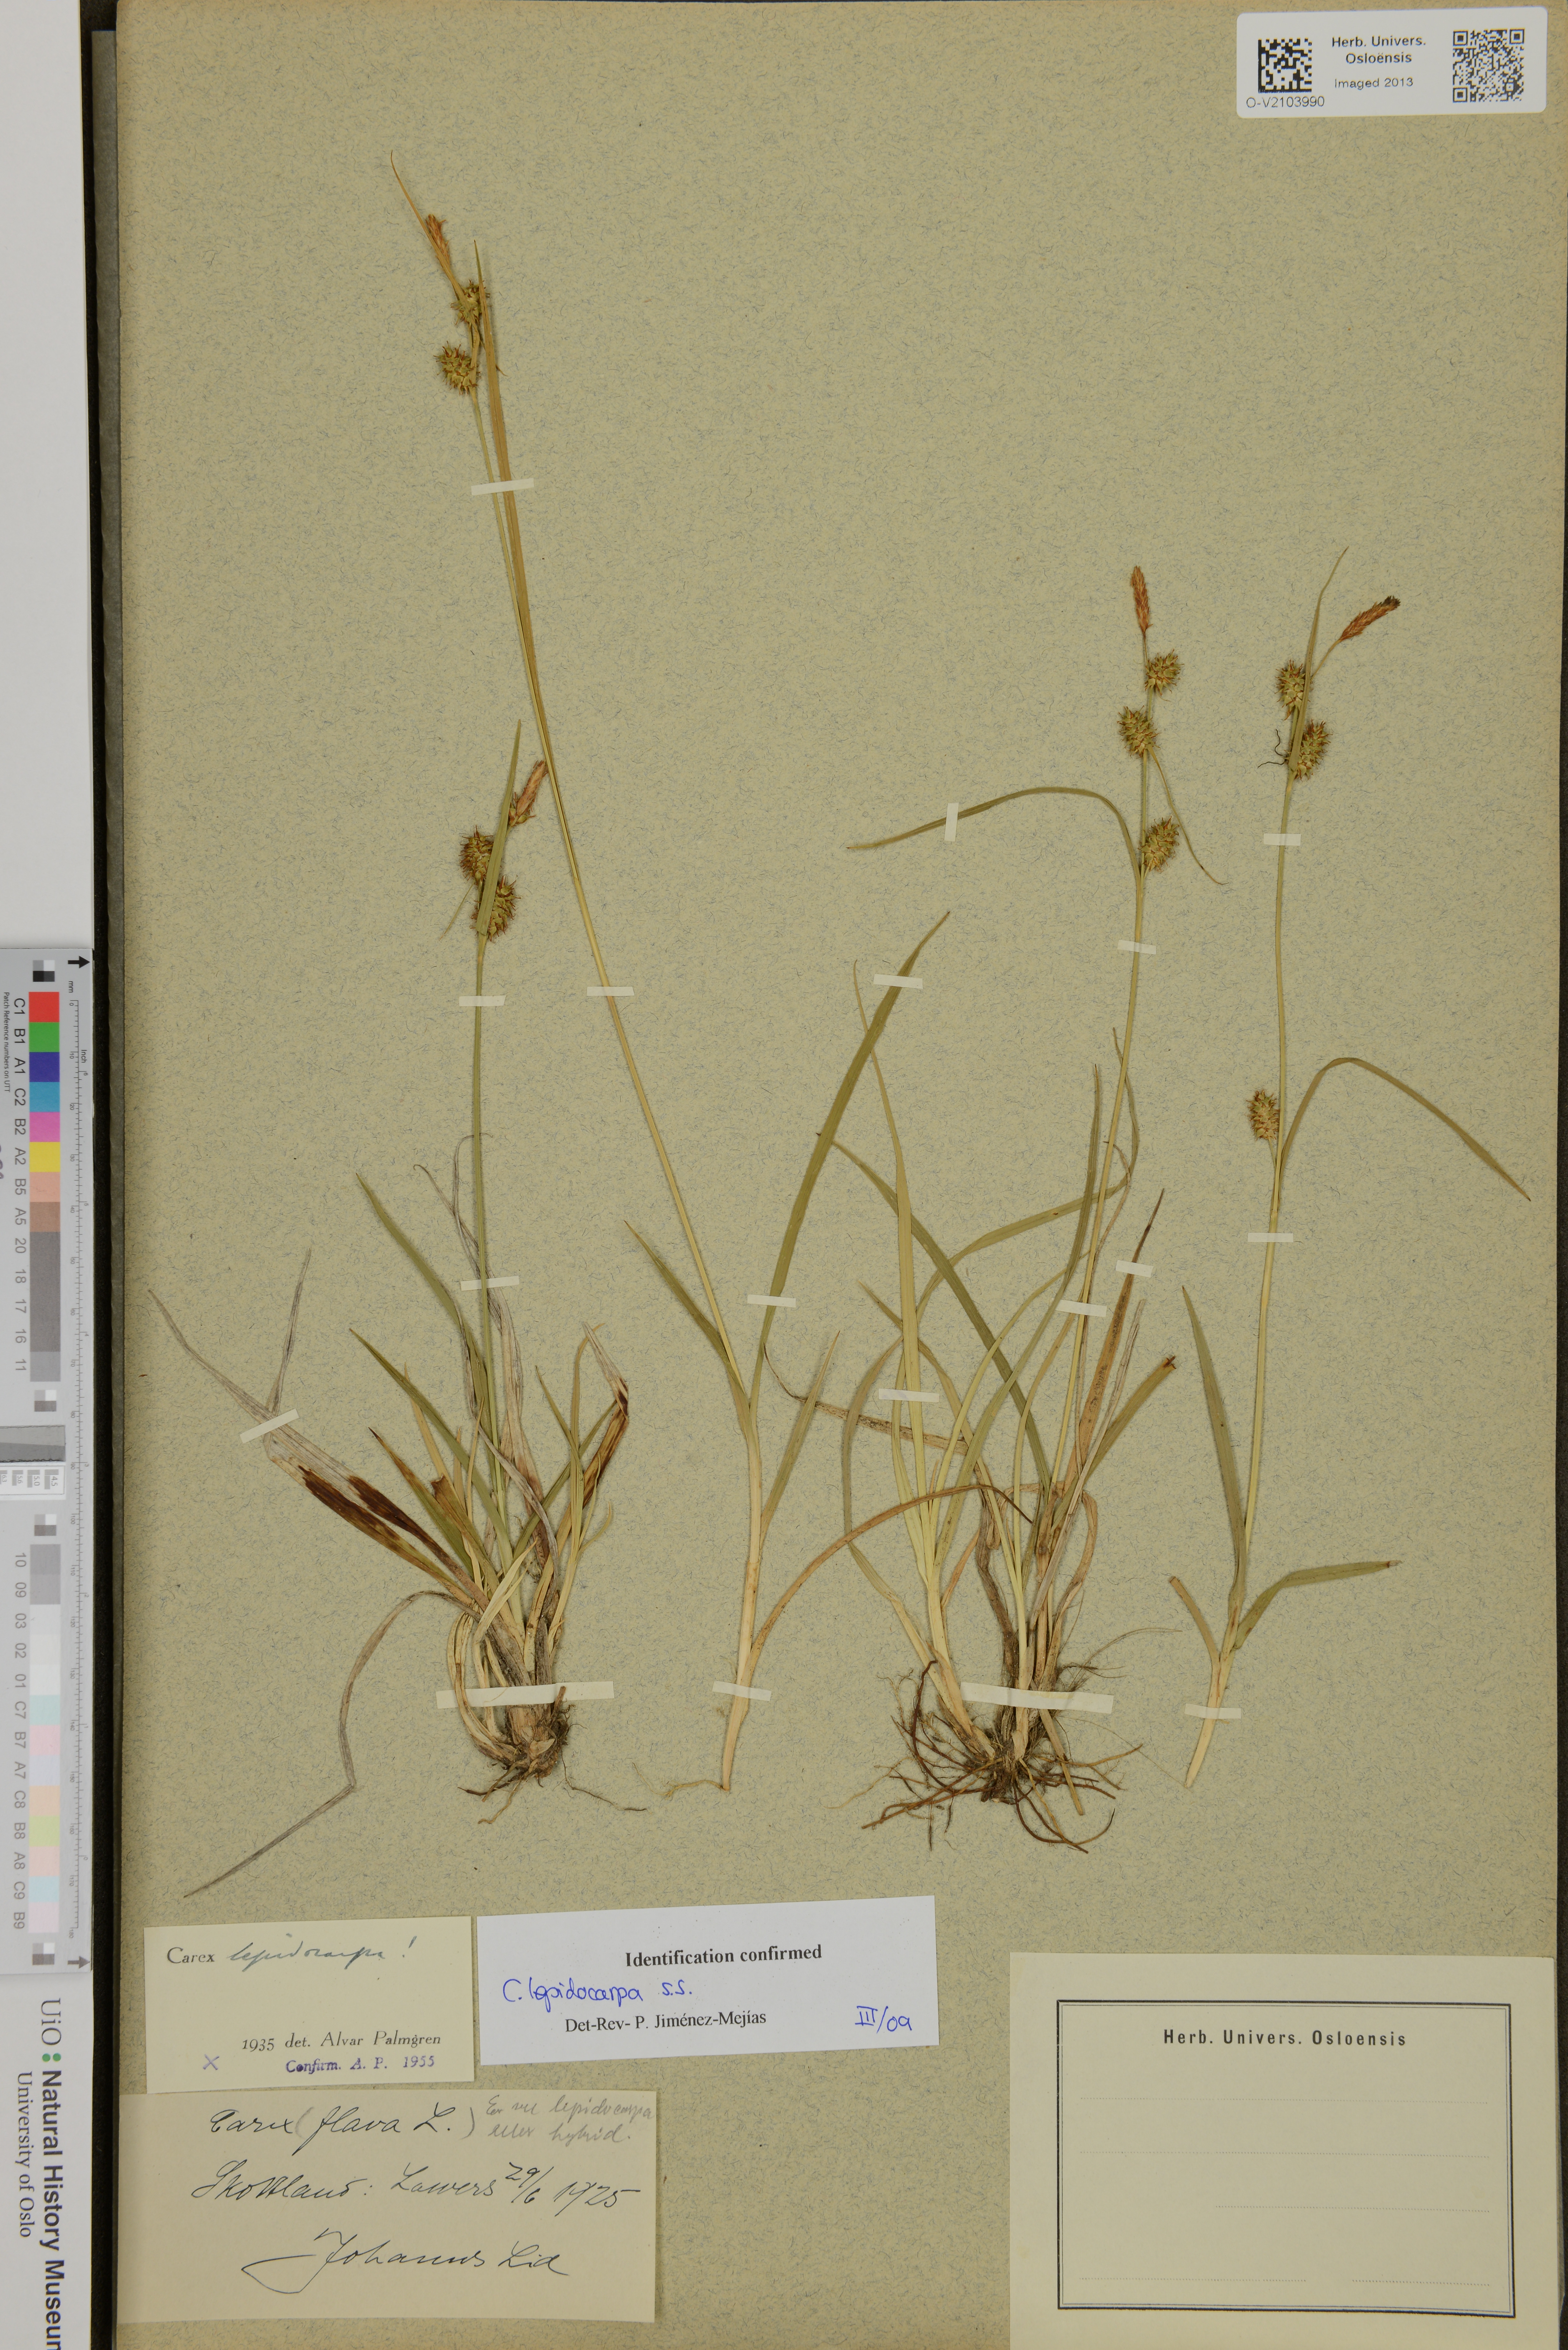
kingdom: Plantae
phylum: Tracheophyta
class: Liliopsida
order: Poales
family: Cyperaceae
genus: Carex
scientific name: Carex lepidocarpa
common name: Long-stalked yellow-sedge
